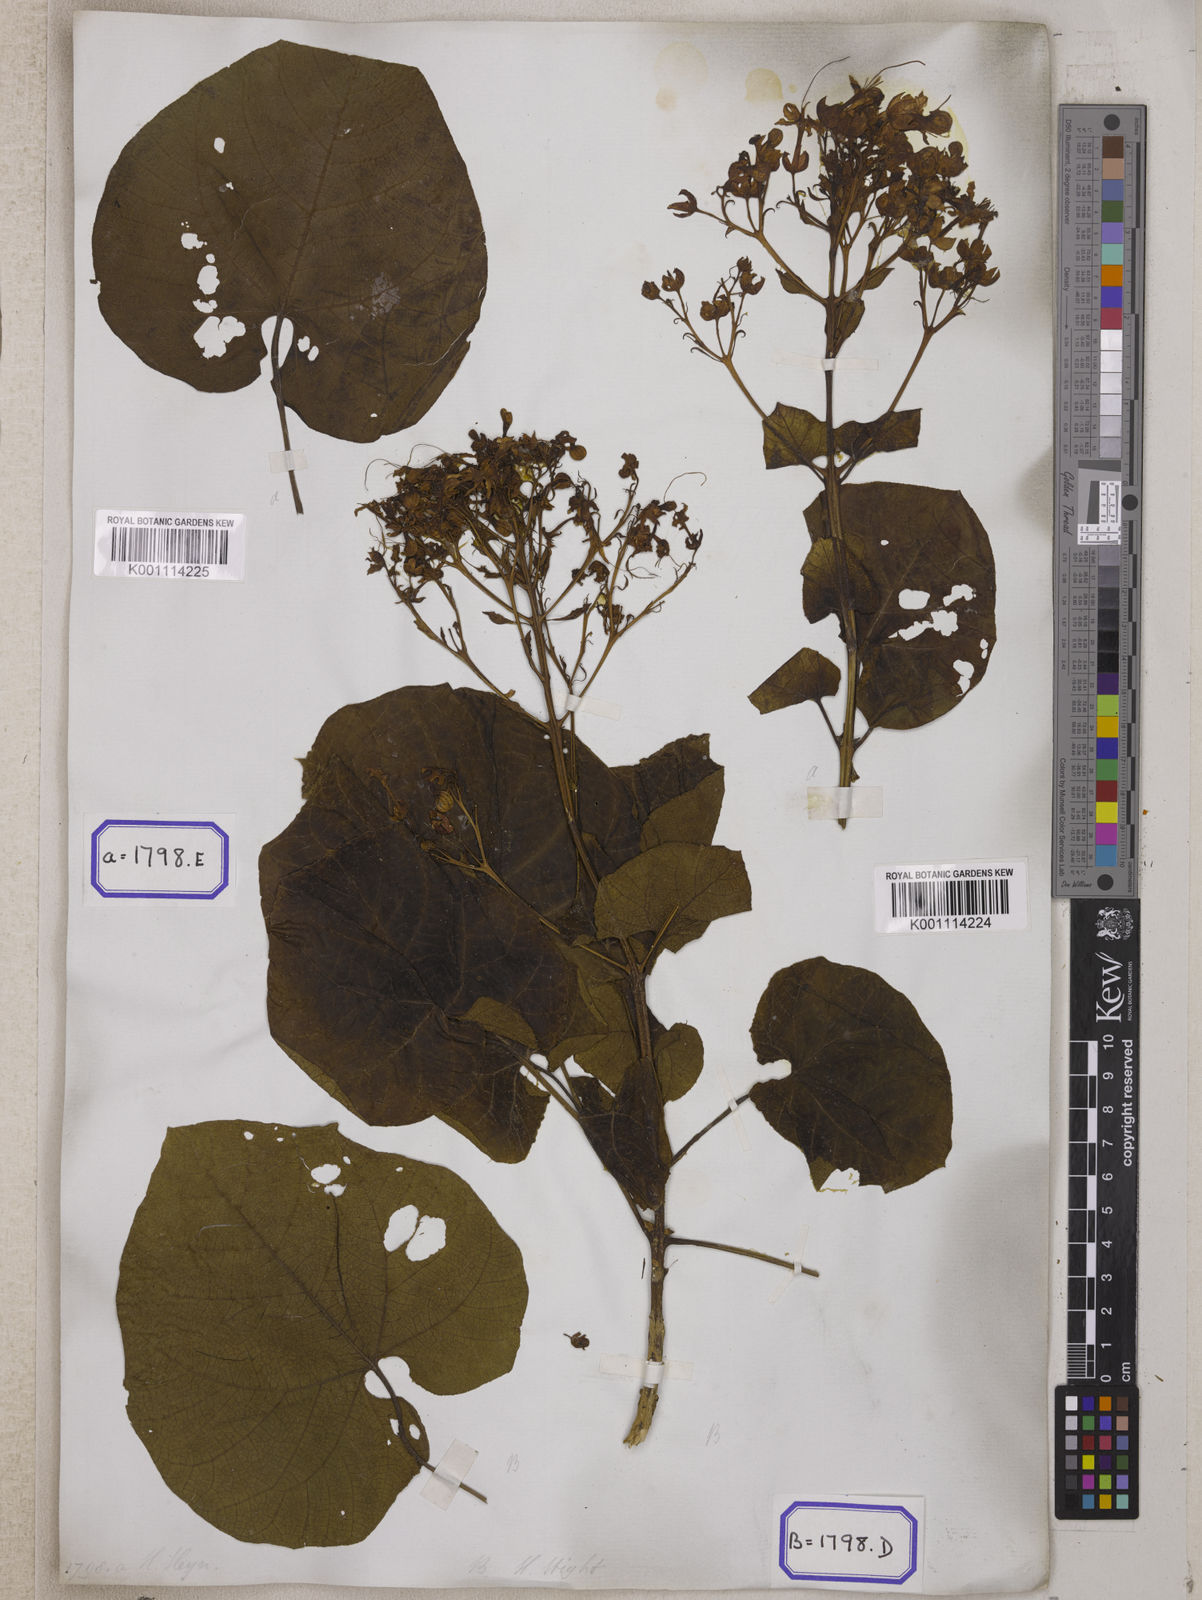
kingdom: Plantae
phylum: Tracheophyta
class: Magnoliopsida
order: Lamiales
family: Lamiaceae
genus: Clerodendrum
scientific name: Clerodendrum japonicum
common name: Japanese glorybower
